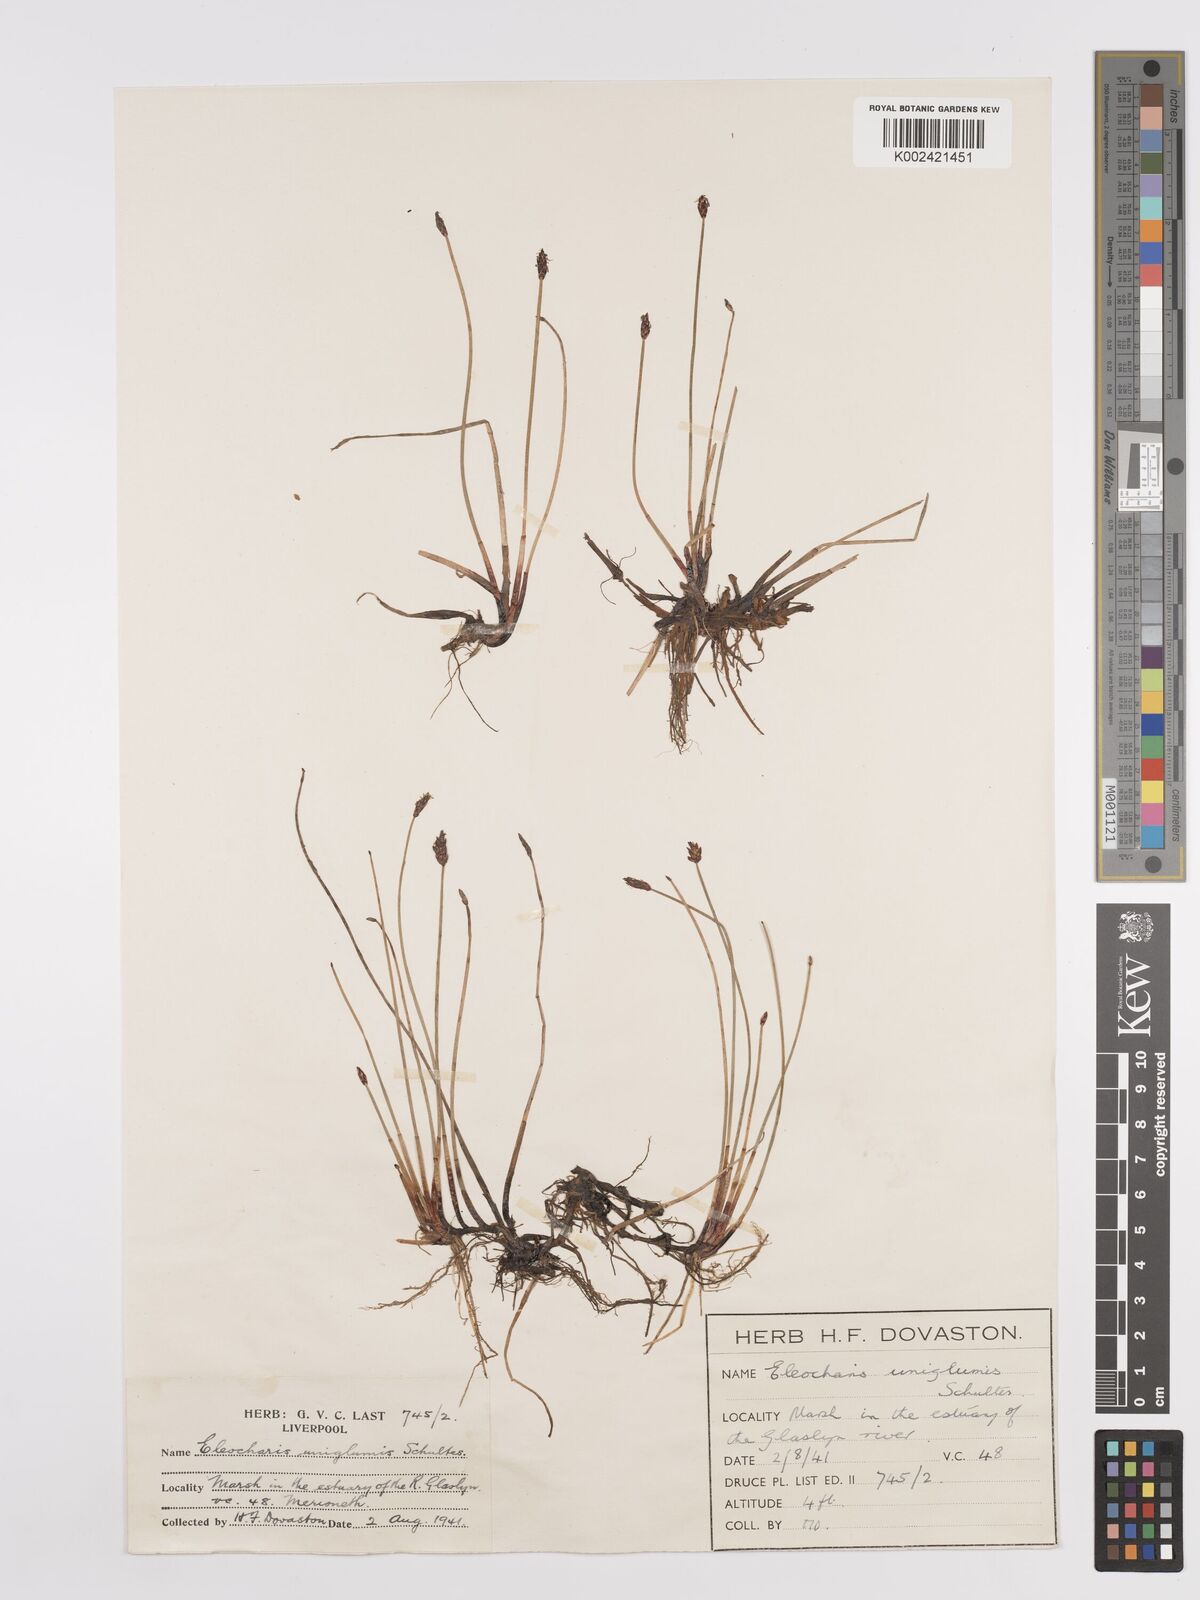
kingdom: Plantae
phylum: Tracheophyta
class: Liliopsida
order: Poales
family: Cyperaceae
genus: Eleocharis
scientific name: Eleocharis uniglumis
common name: Slender spike-rush
